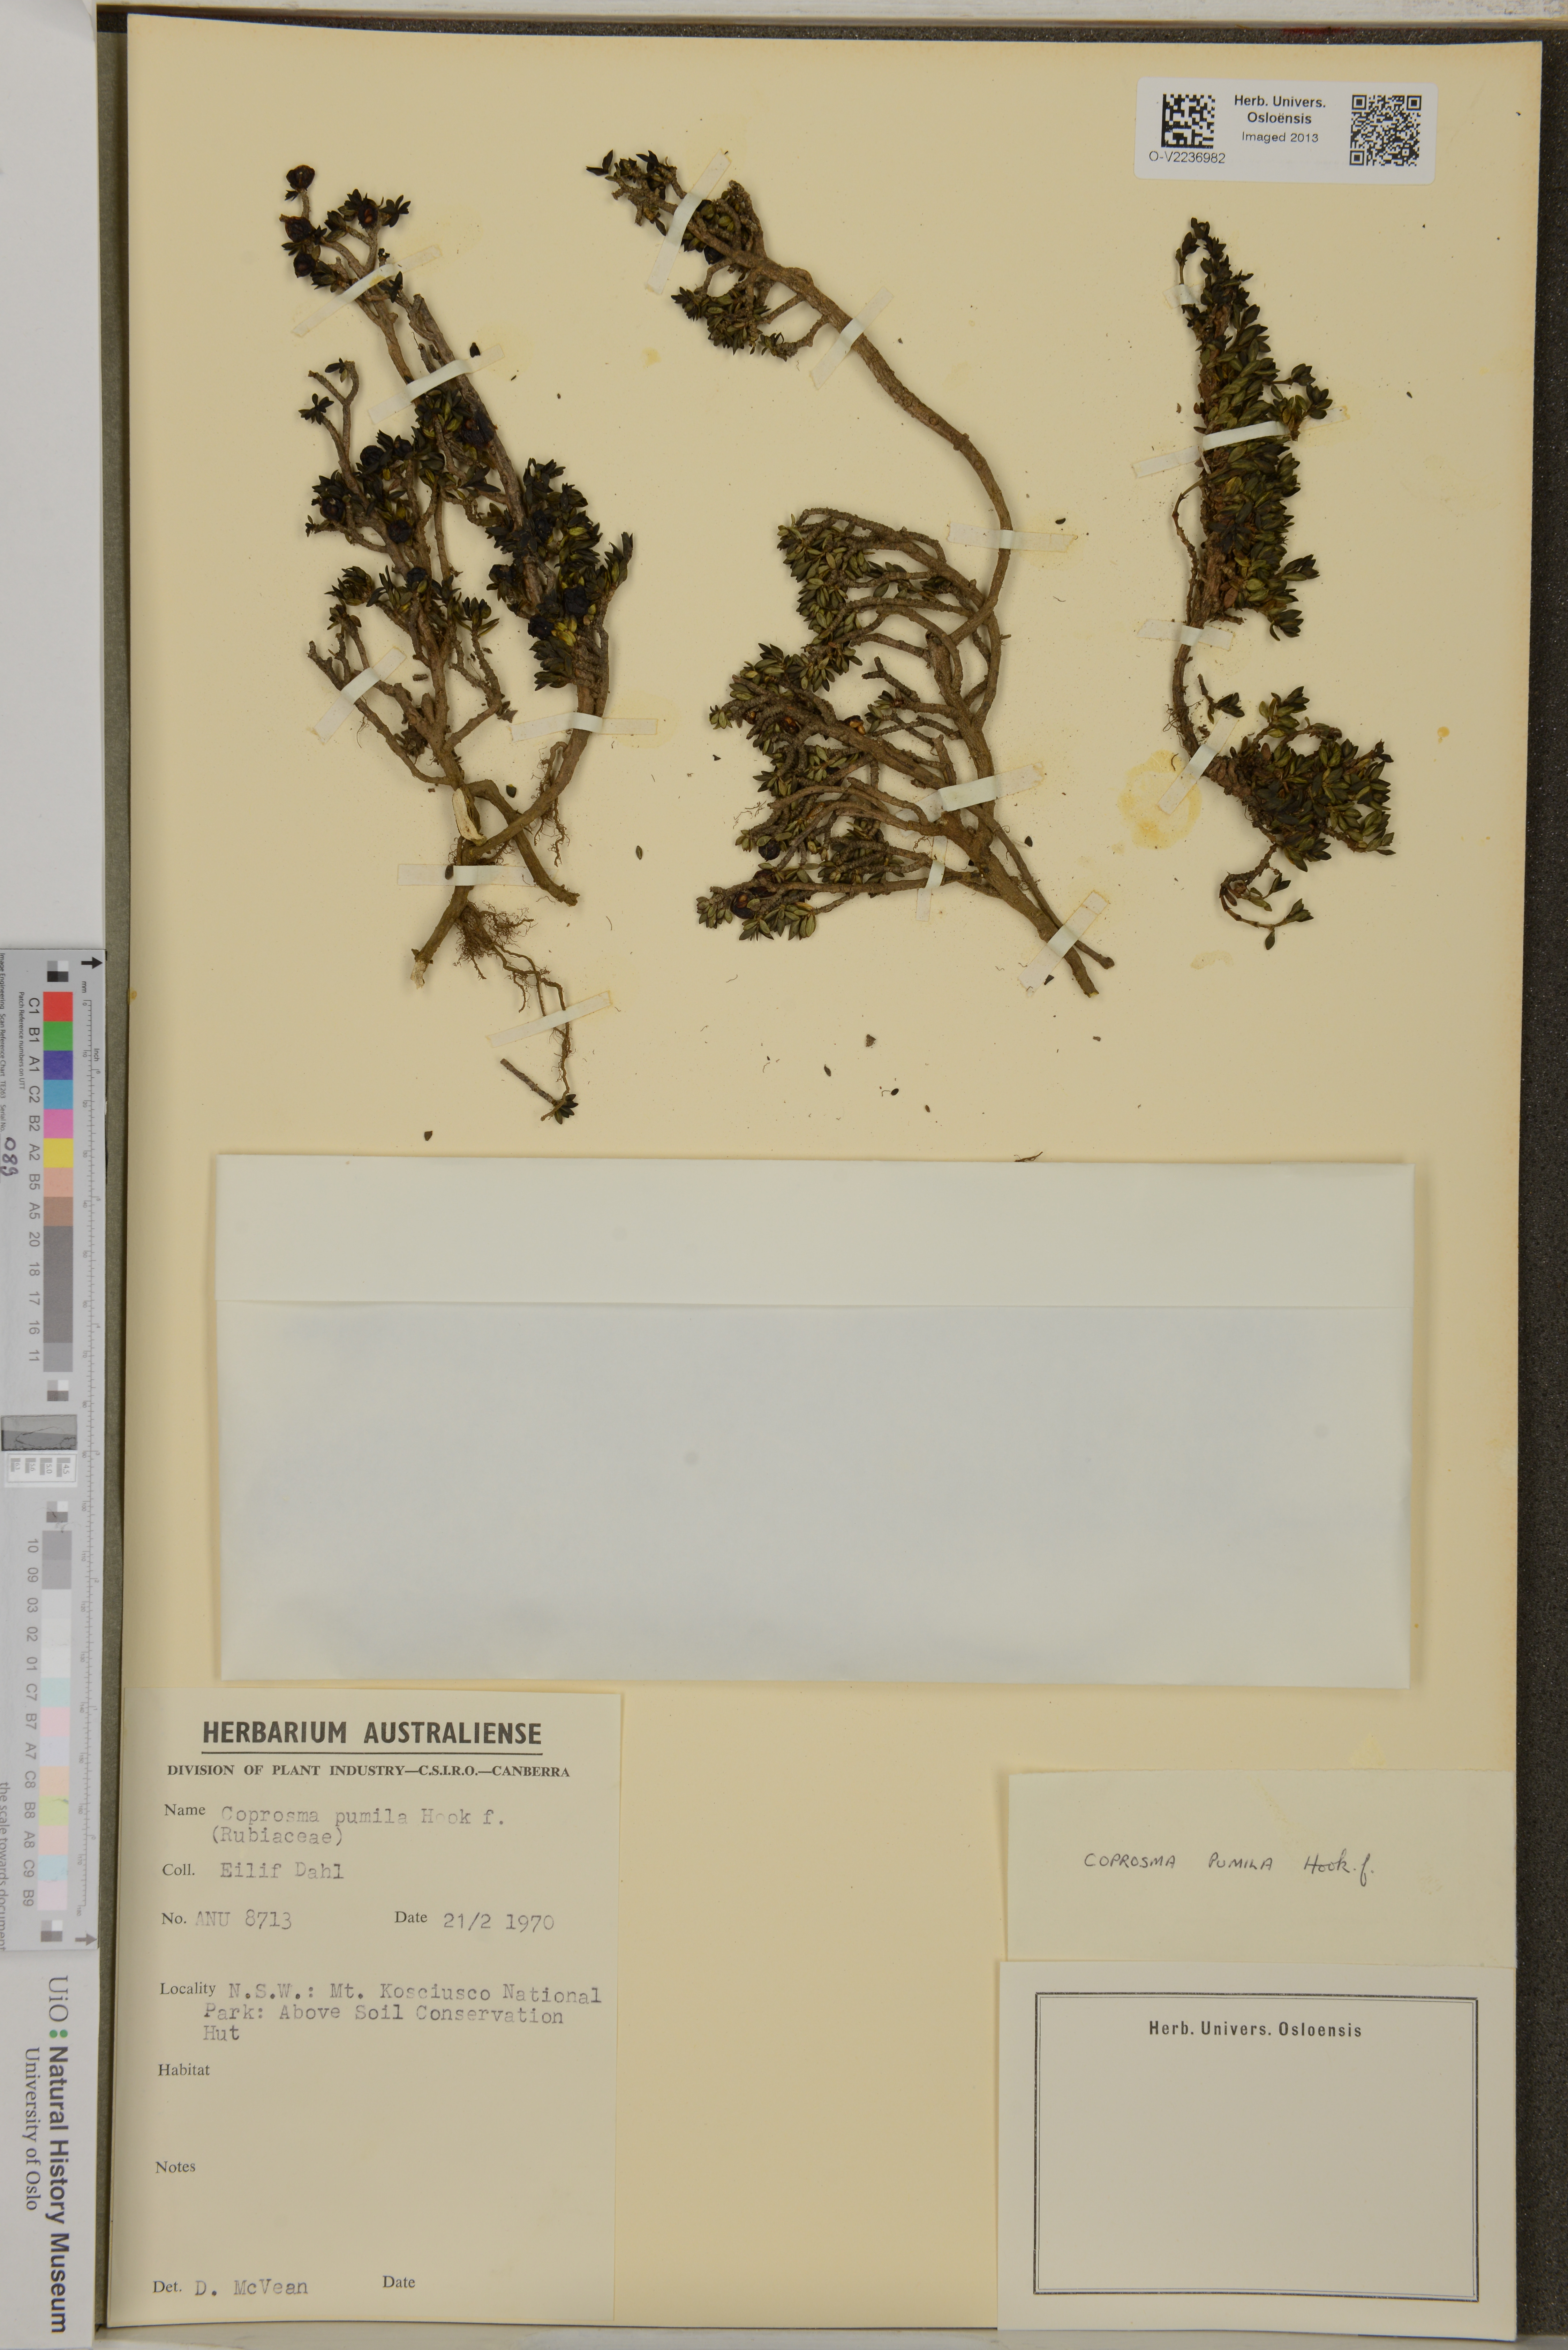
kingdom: Plantae
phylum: Tracheophyta
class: Magnoliopsida
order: Gentianales
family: Rubiaceae
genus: Coprosma
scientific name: Coprosma pumila
